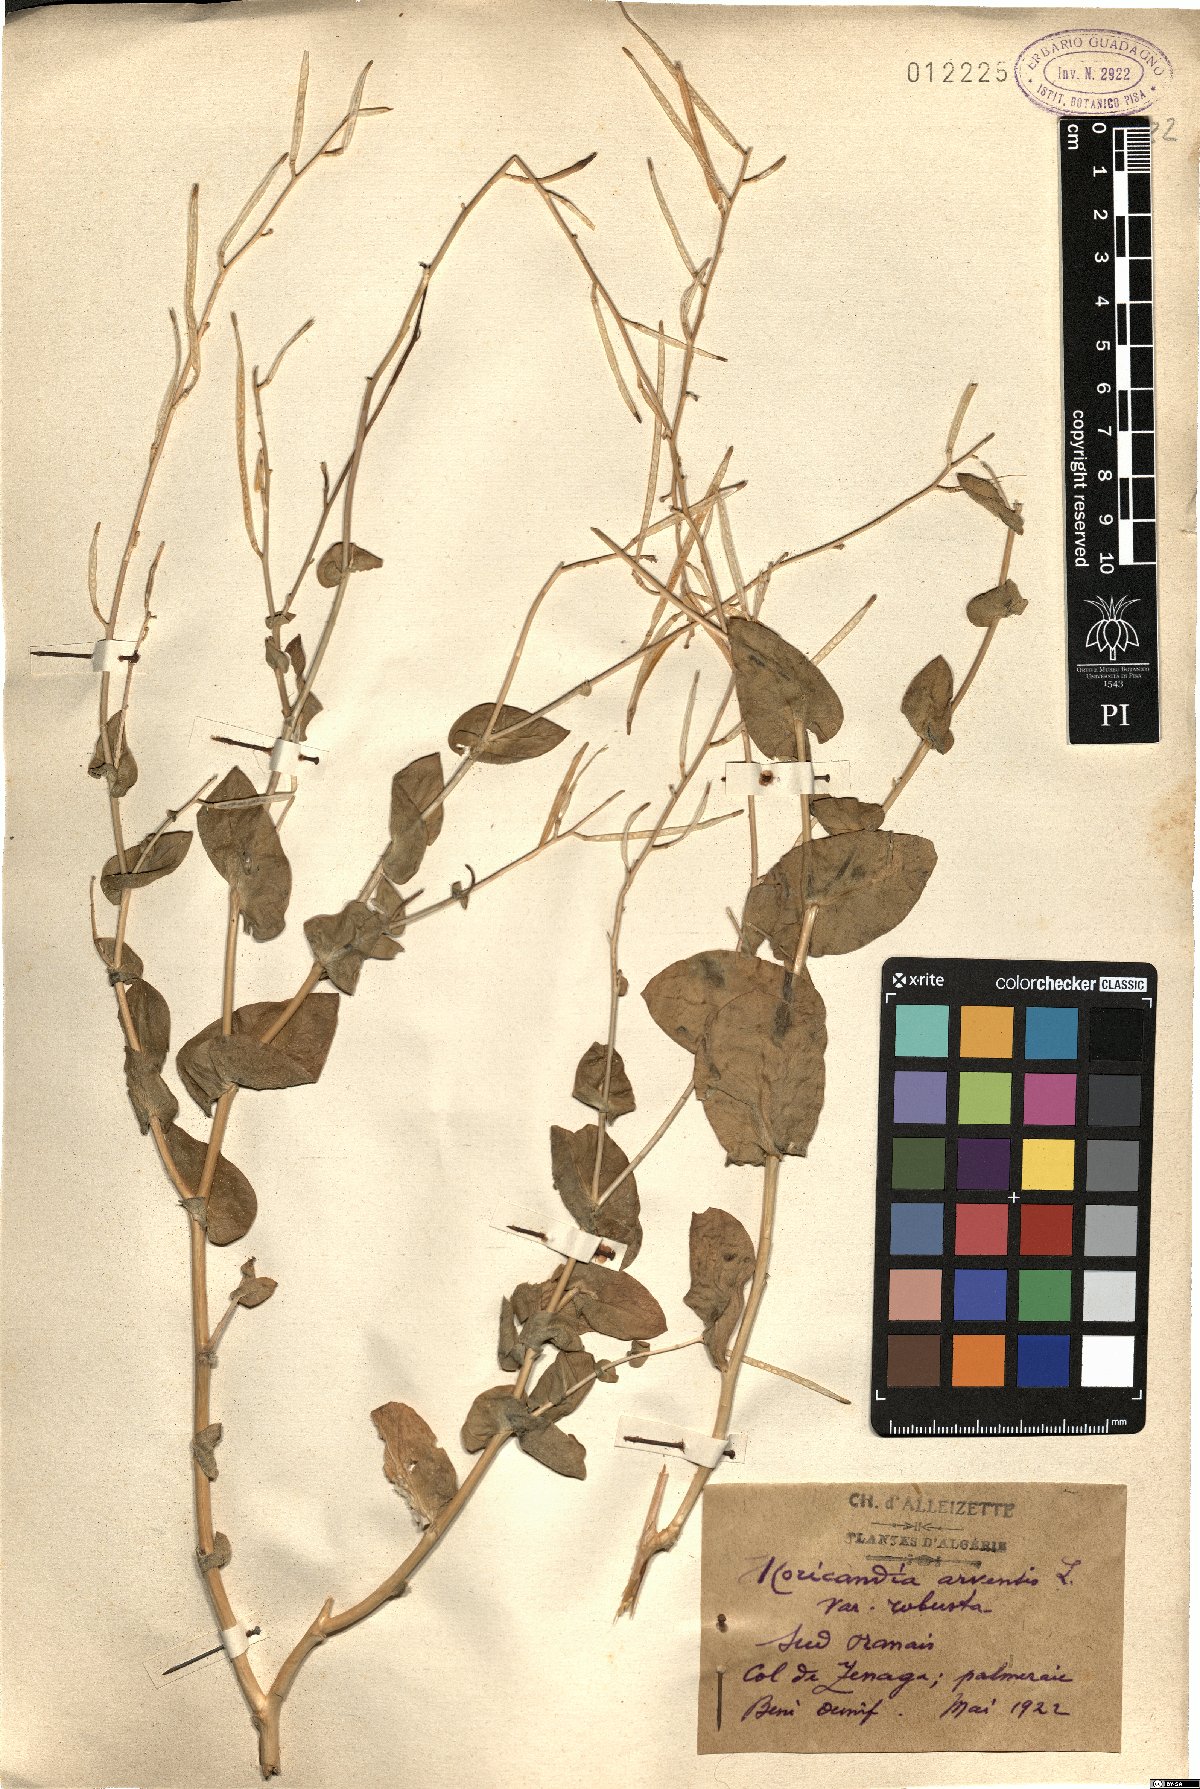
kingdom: Plantae
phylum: Tracheophyta
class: Magnoliopsida
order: Brassicales
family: Brassicaceae
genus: Moricandia
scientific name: Moricandia arvensis
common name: Purple mistress
